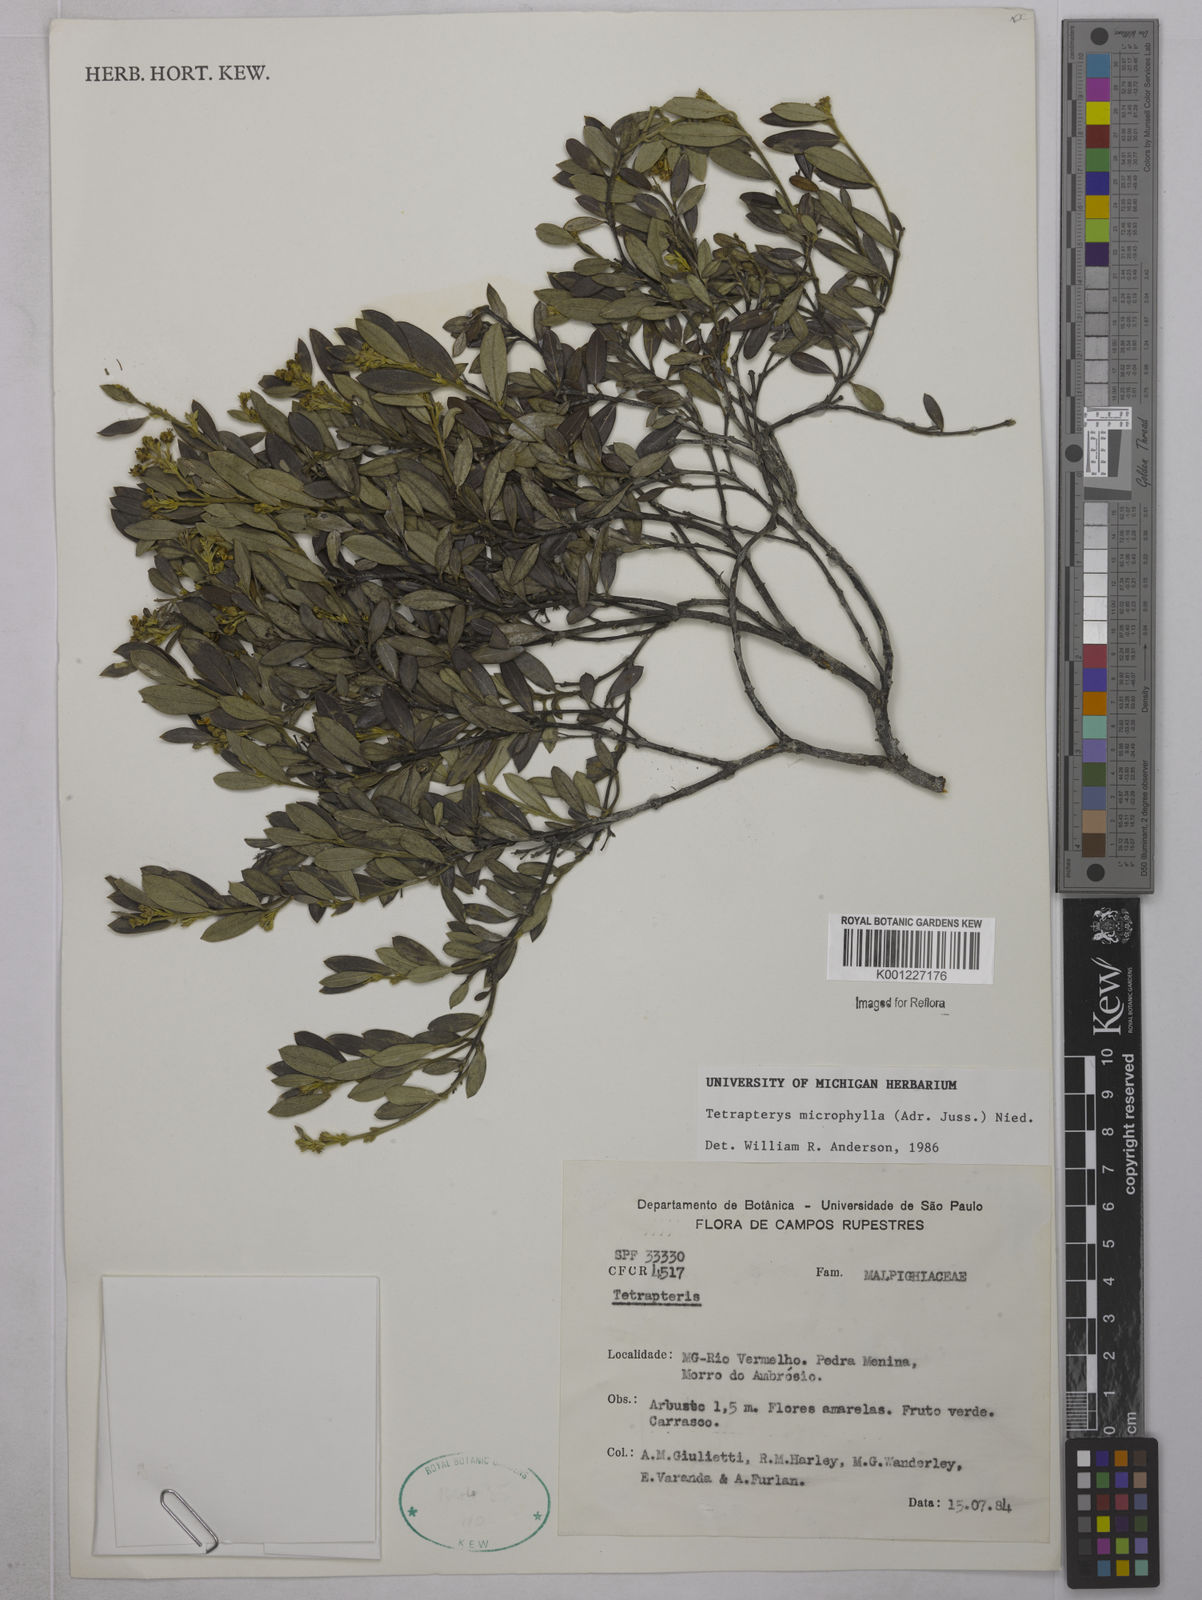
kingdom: Plantae
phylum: Tracheophyta
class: Magnoliopsida
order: Malpighiales
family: Malpighiaceae
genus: Glicophyllum
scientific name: Glicophyllum microphyllum
